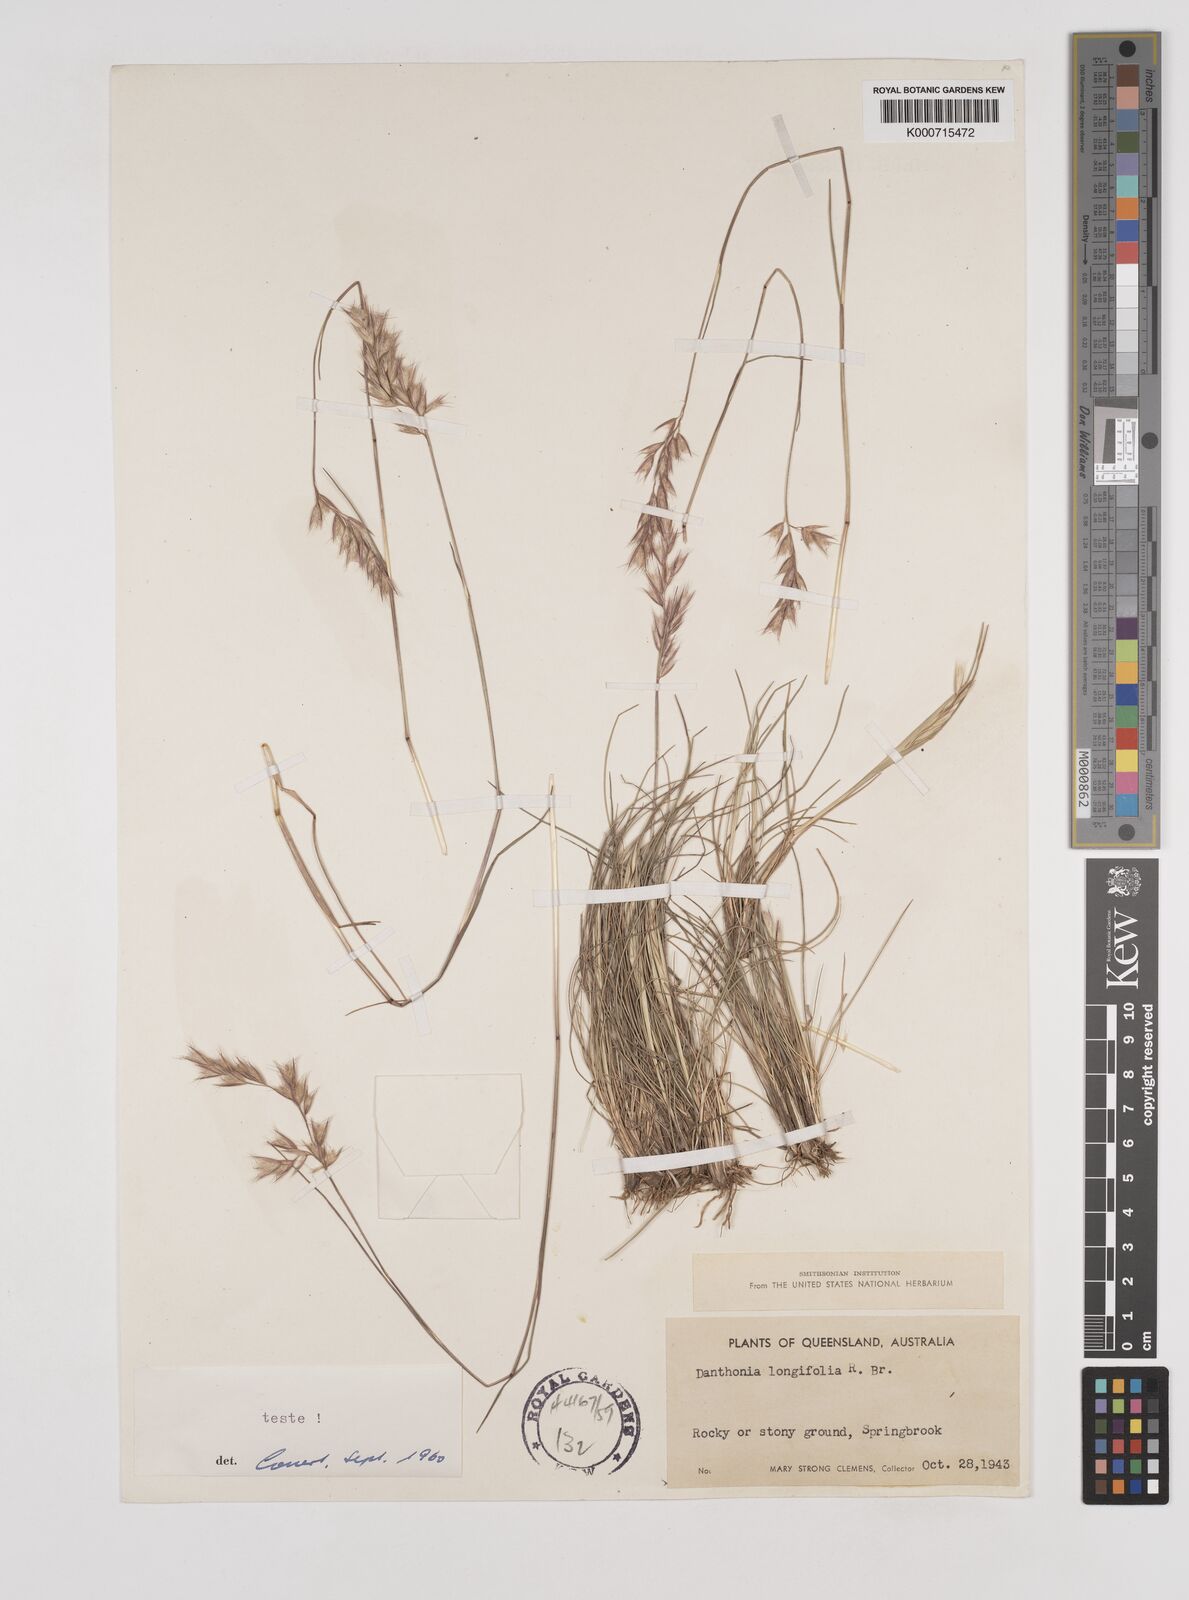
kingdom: Plantae
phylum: Tracheophyta
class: Liliopsida
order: Poales
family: Poaceae
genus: Rytidosperma
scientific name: Rytidosperma longifolium
